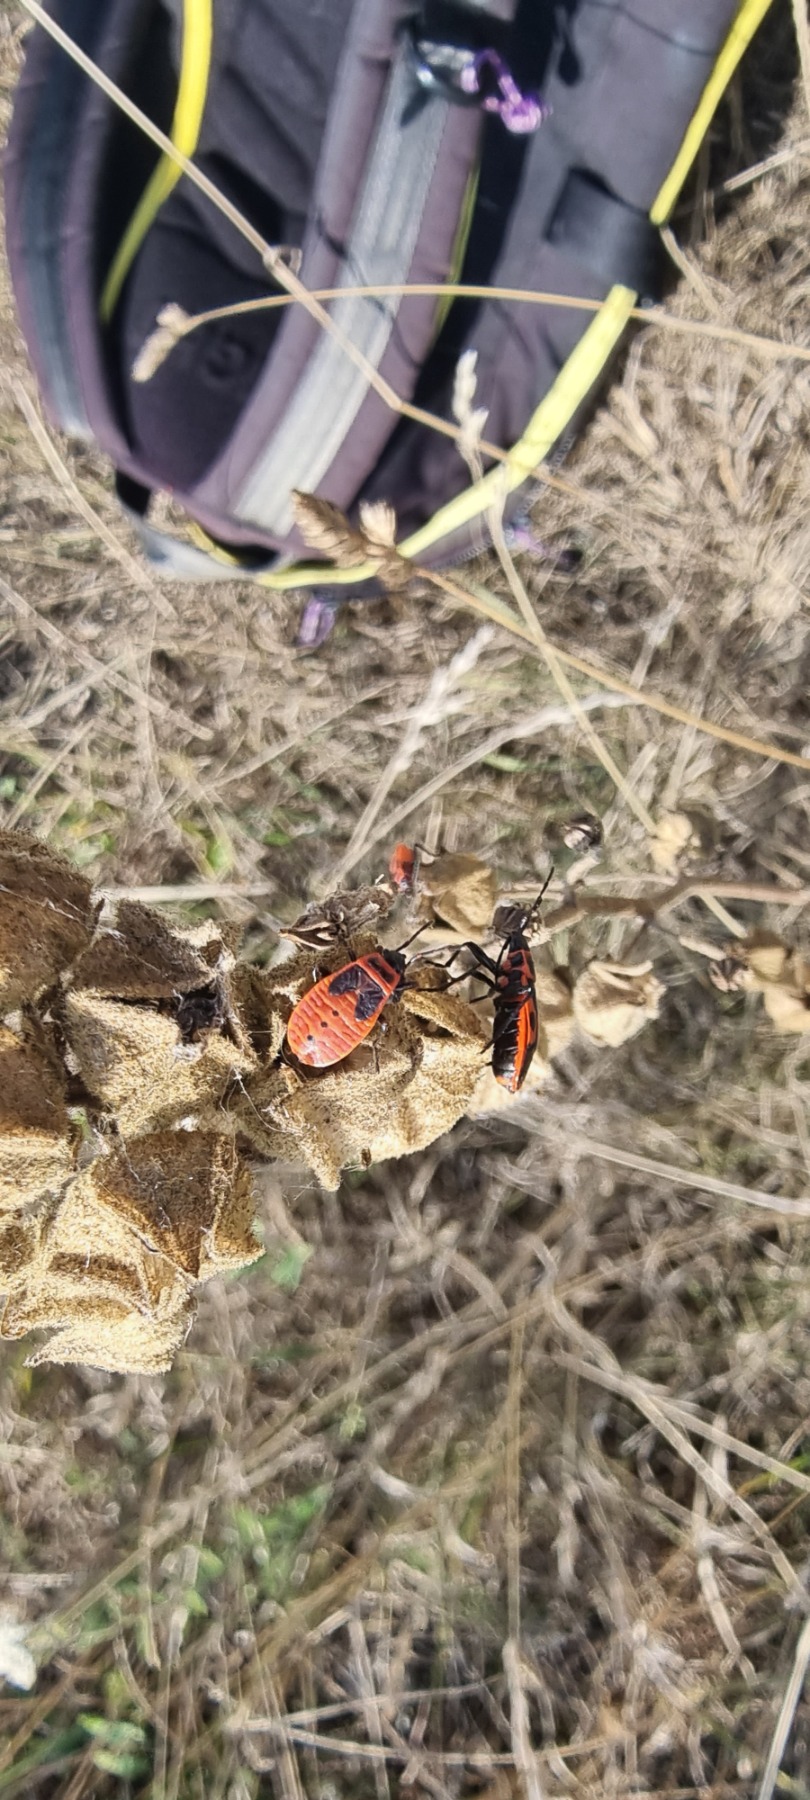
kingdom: Animalia
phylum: Arthropoda
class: Insecta
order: Hemiptera
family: Pyrrhocoridae
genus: Pyrrhocoris
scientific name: Pyrrhocoris apterus
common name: Ildtæge
